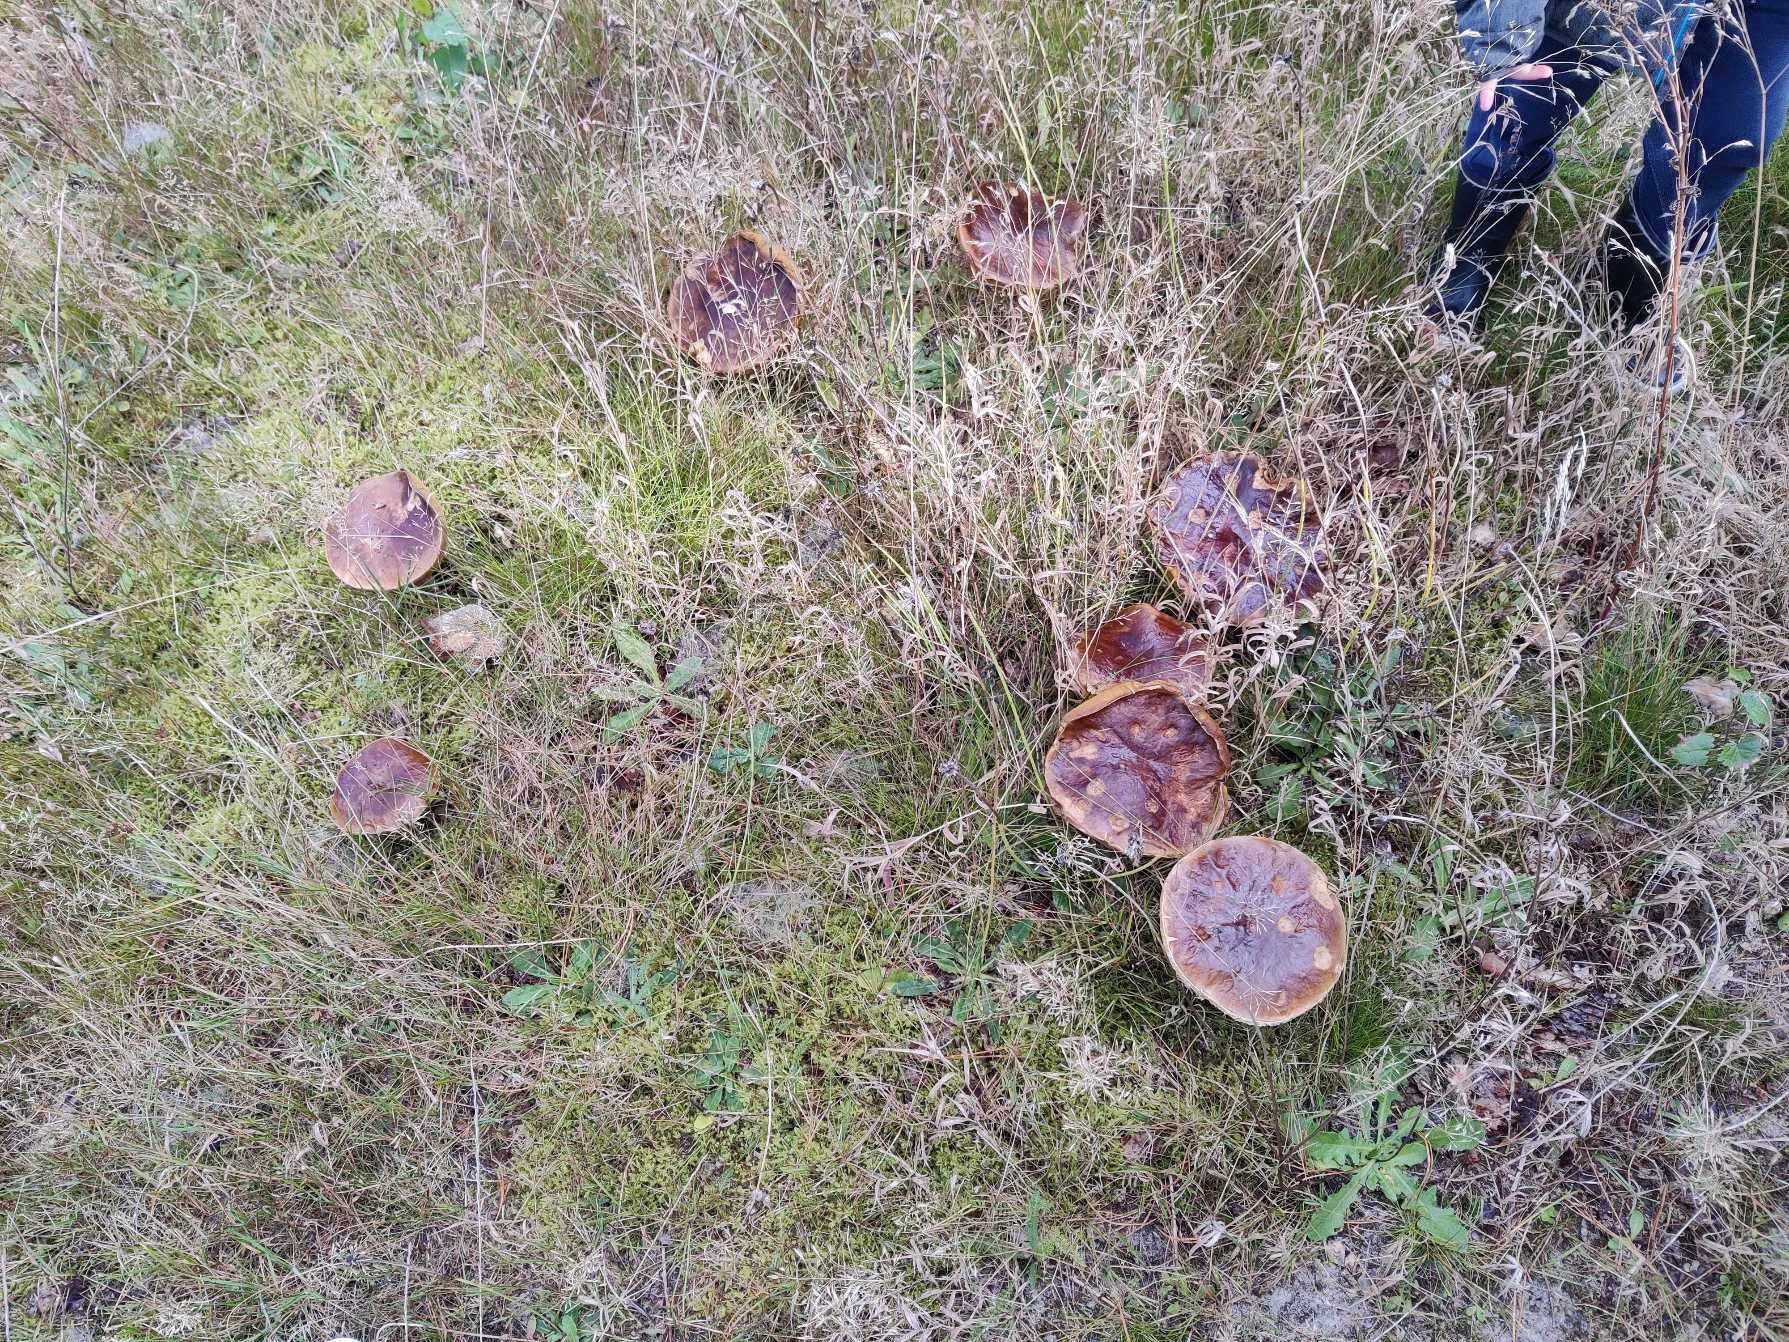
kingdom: Fungi
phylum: Basidiomycota
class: Agaricomycetes
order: Boletales
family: Boletaceae
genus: Boletus
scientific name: Boletus edulis
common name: Spiselig rørhat/karl johan
